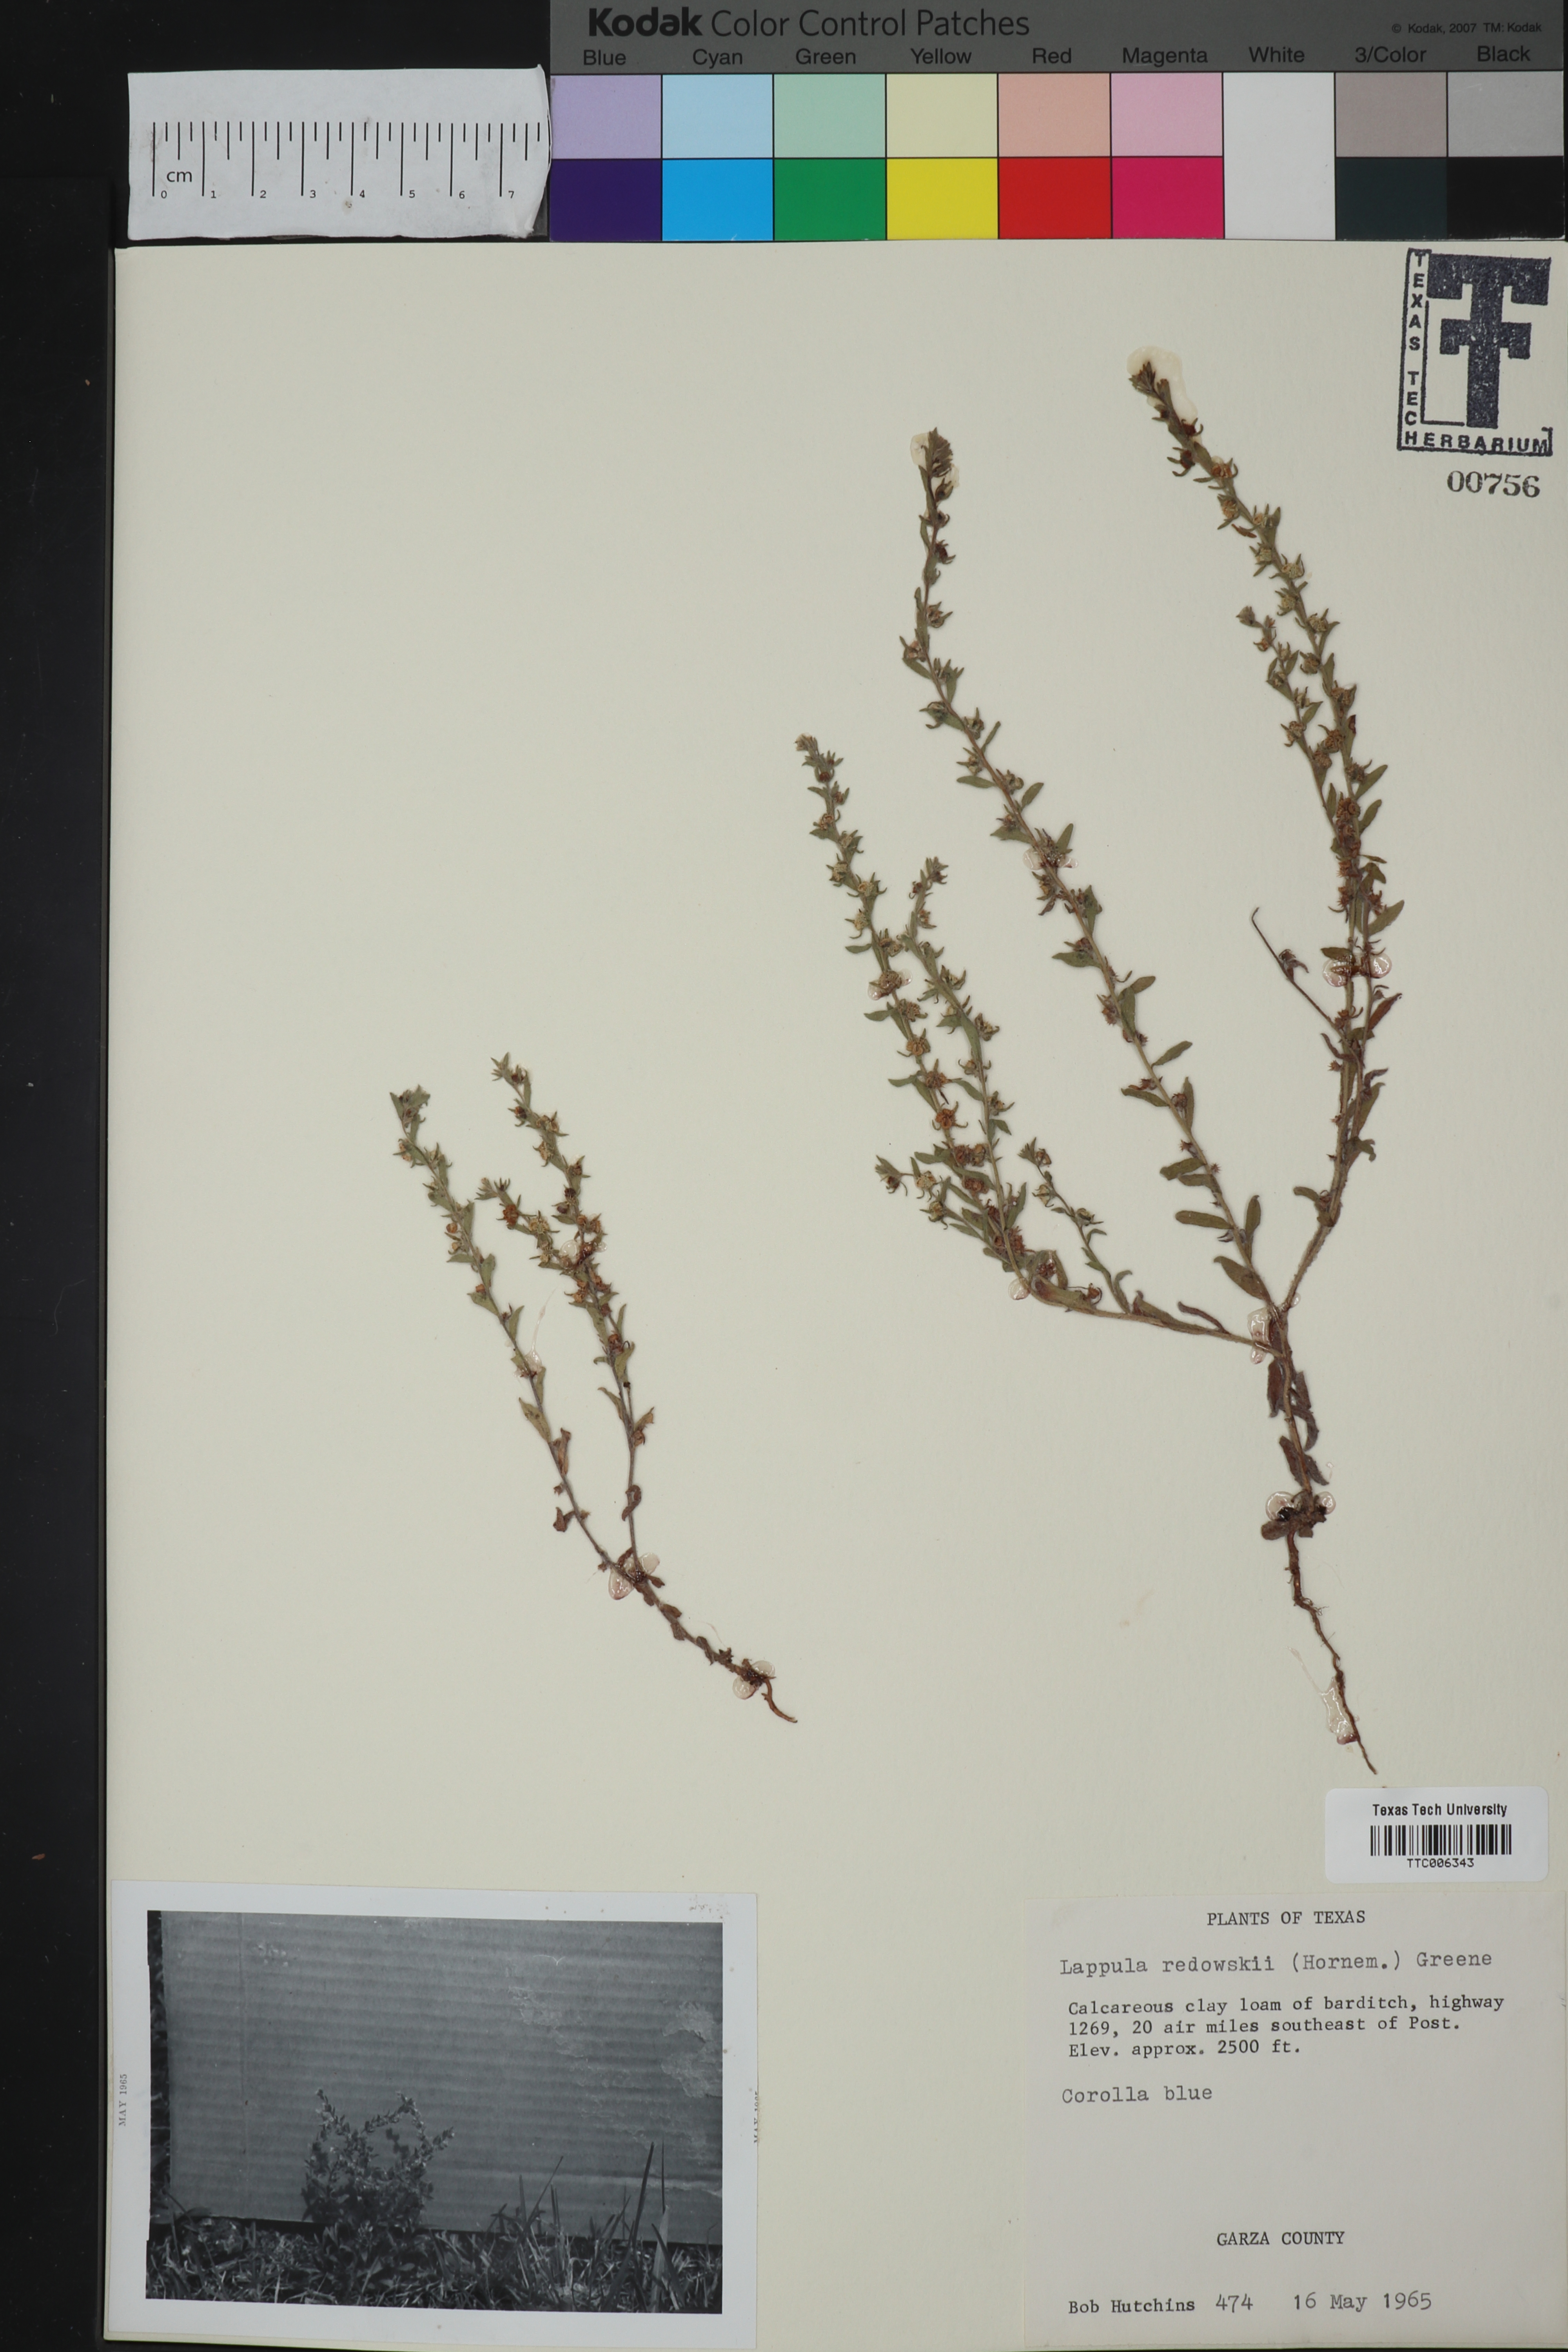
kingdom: Plantae
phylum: Tracheophyta
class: Magnoliopsida
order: Boraginales
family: Boraginaceae
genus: Lappula
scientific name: Lappula redowskii
